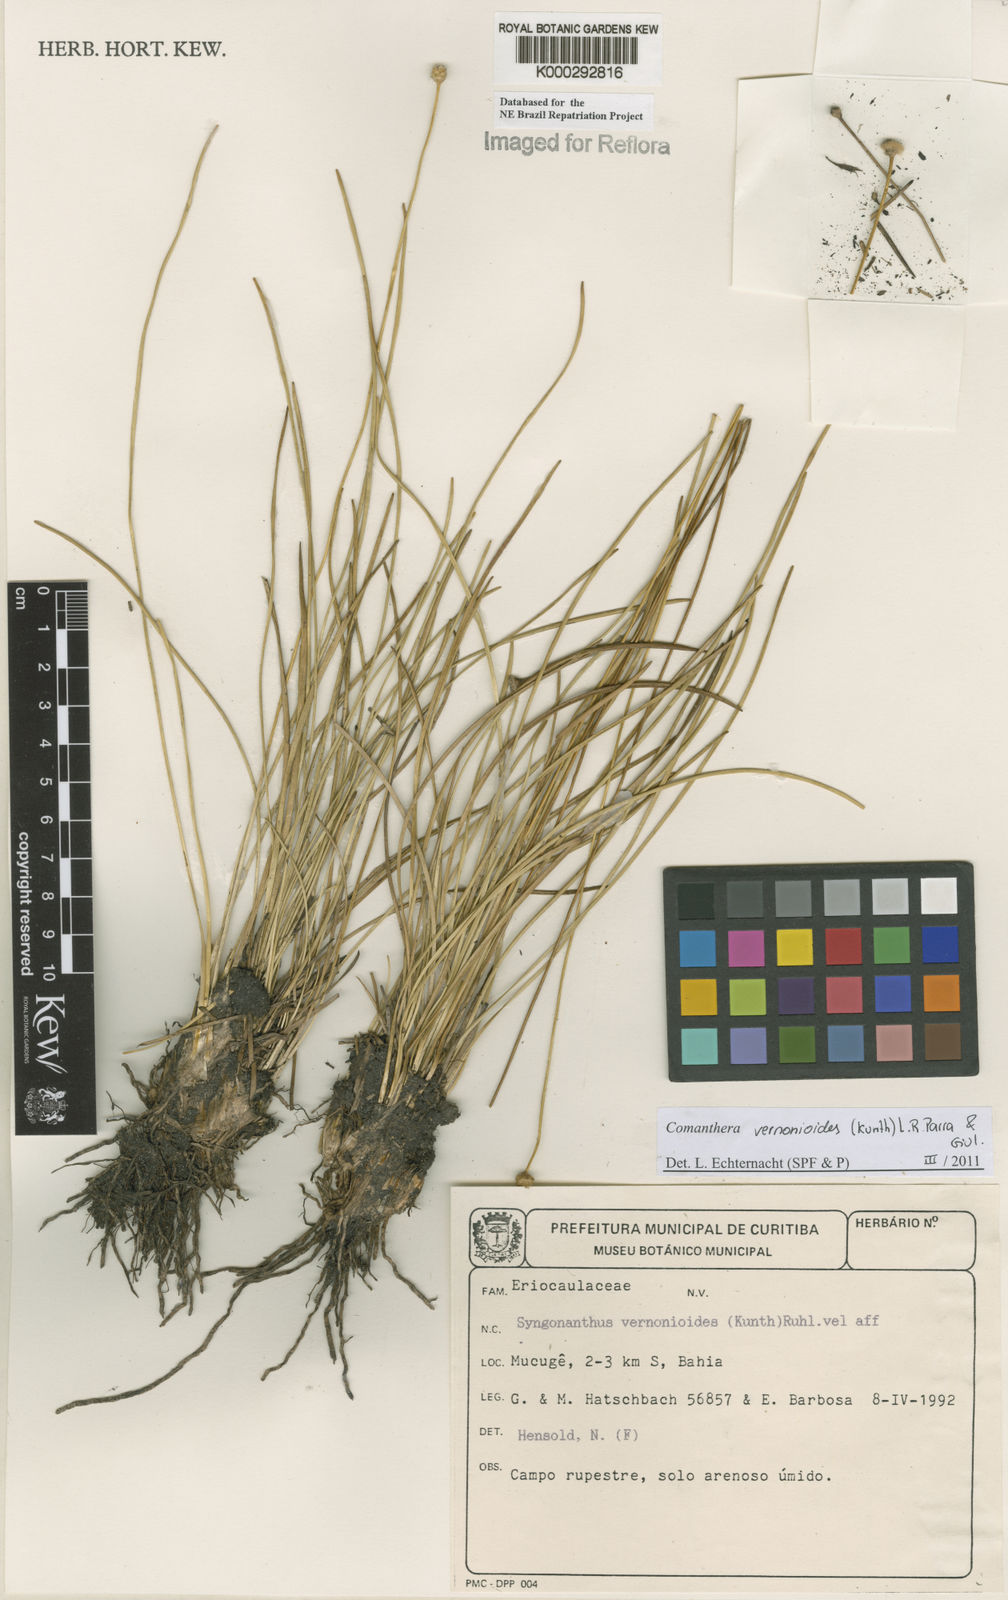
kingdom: Plantae
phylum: Tracheophyta
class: Liliopsida
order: Poales
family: Eriocaulaceae
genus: Comanthera
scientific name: Comanthera centauroides
